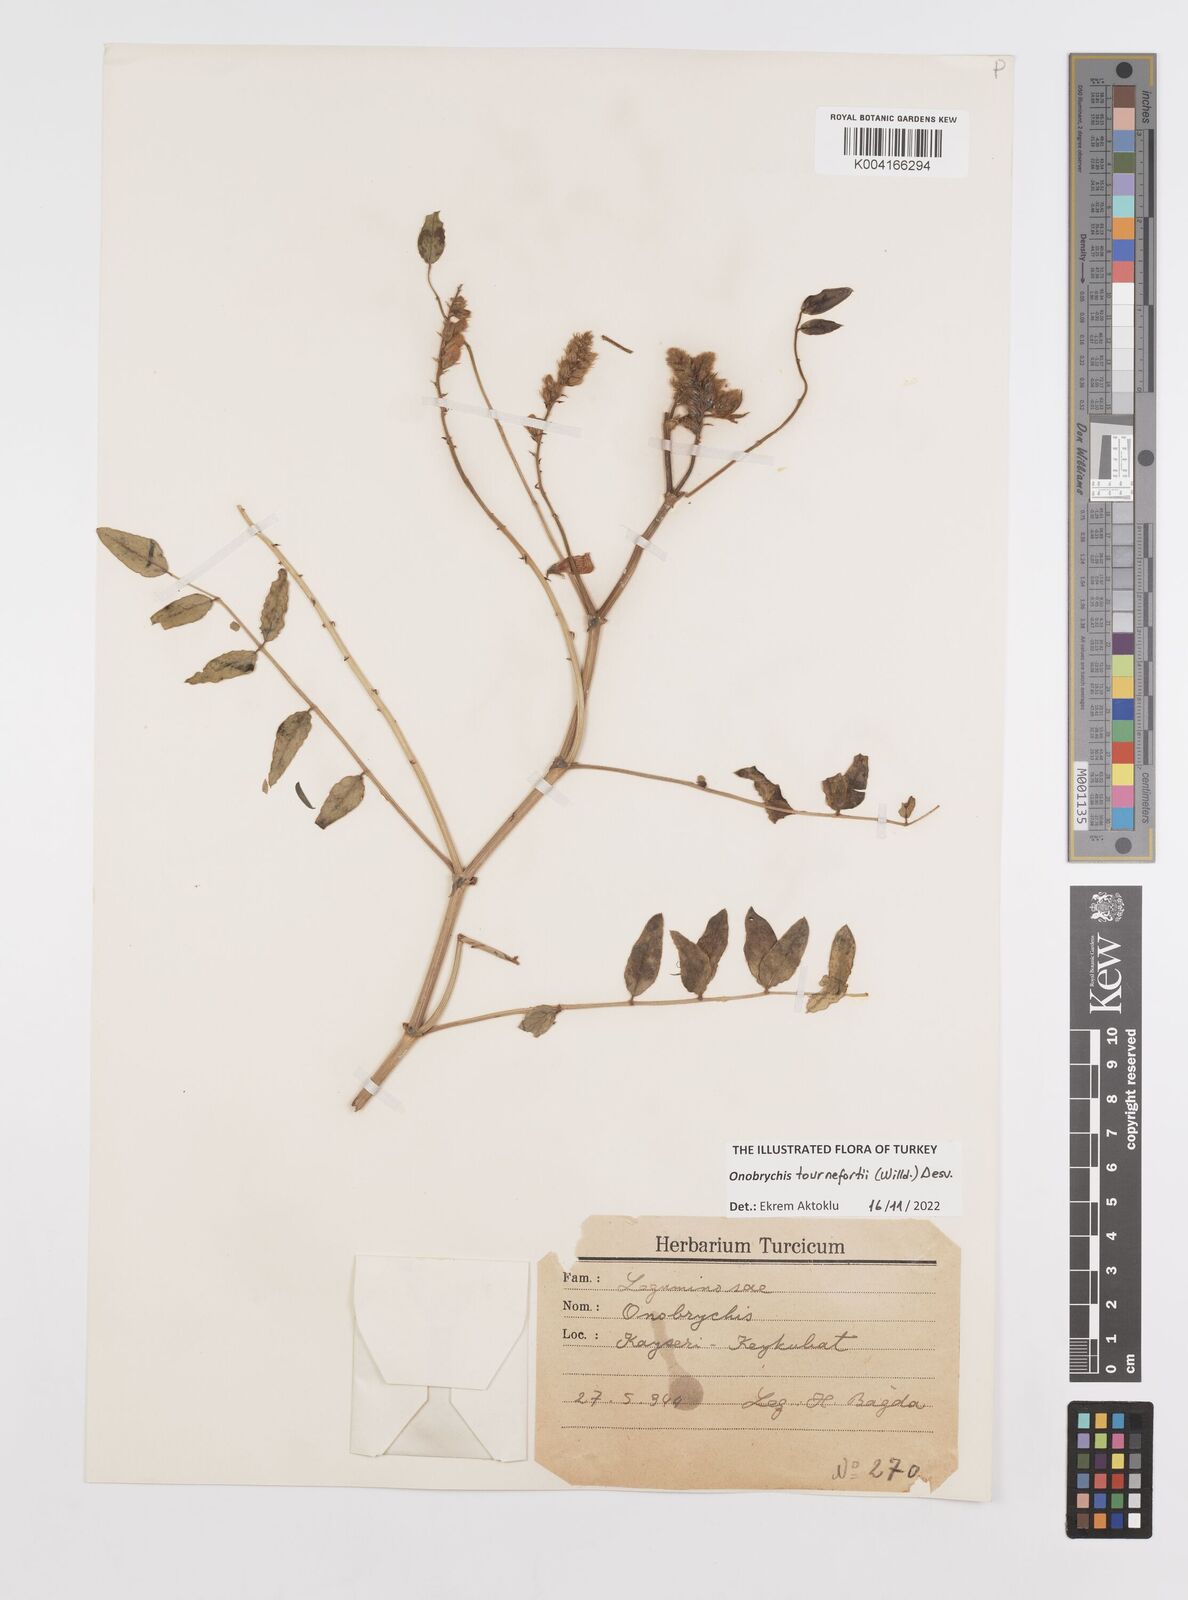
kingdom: Plantae
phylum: Tracheophyta
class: Magnoliopsida
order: Fabales
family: Fabaceae
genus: Onobrychis
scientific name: Onobrychis tournefortii
